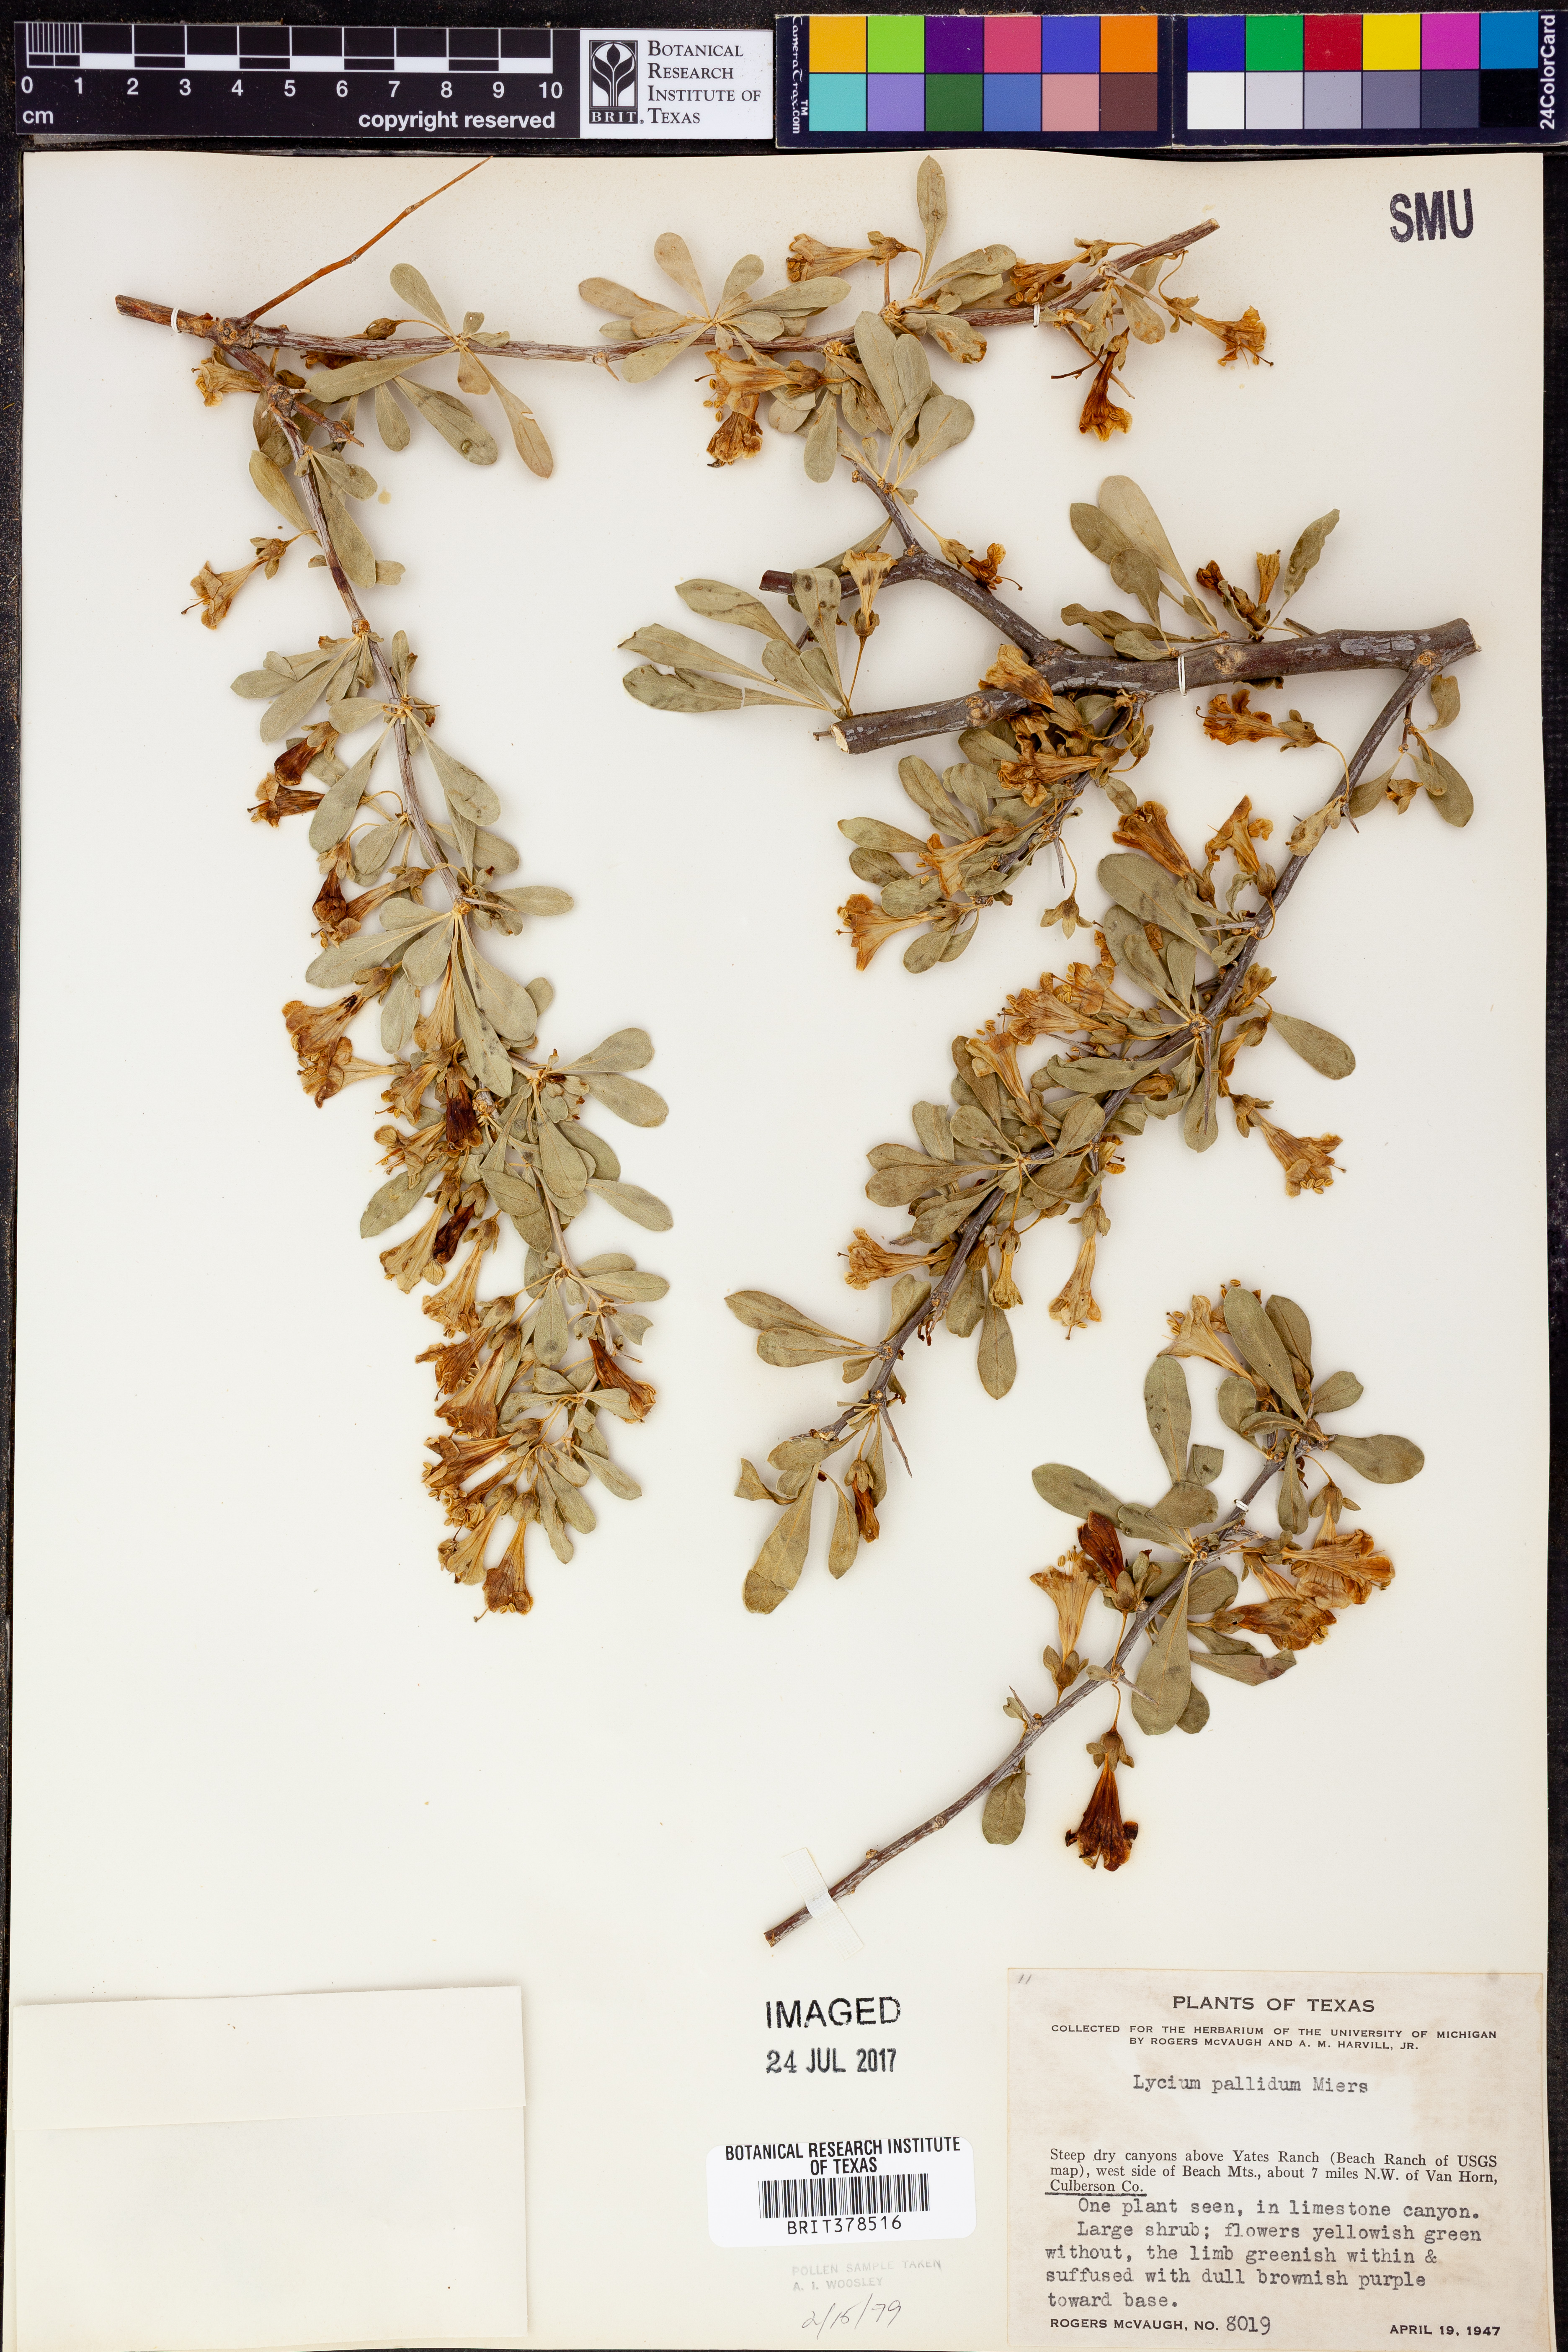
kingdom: Plantae
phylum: Tracheophyta
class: Magnoliopsida
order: Solanales
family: Solanaceae
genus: Lycium
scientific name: Lycium pallidum
